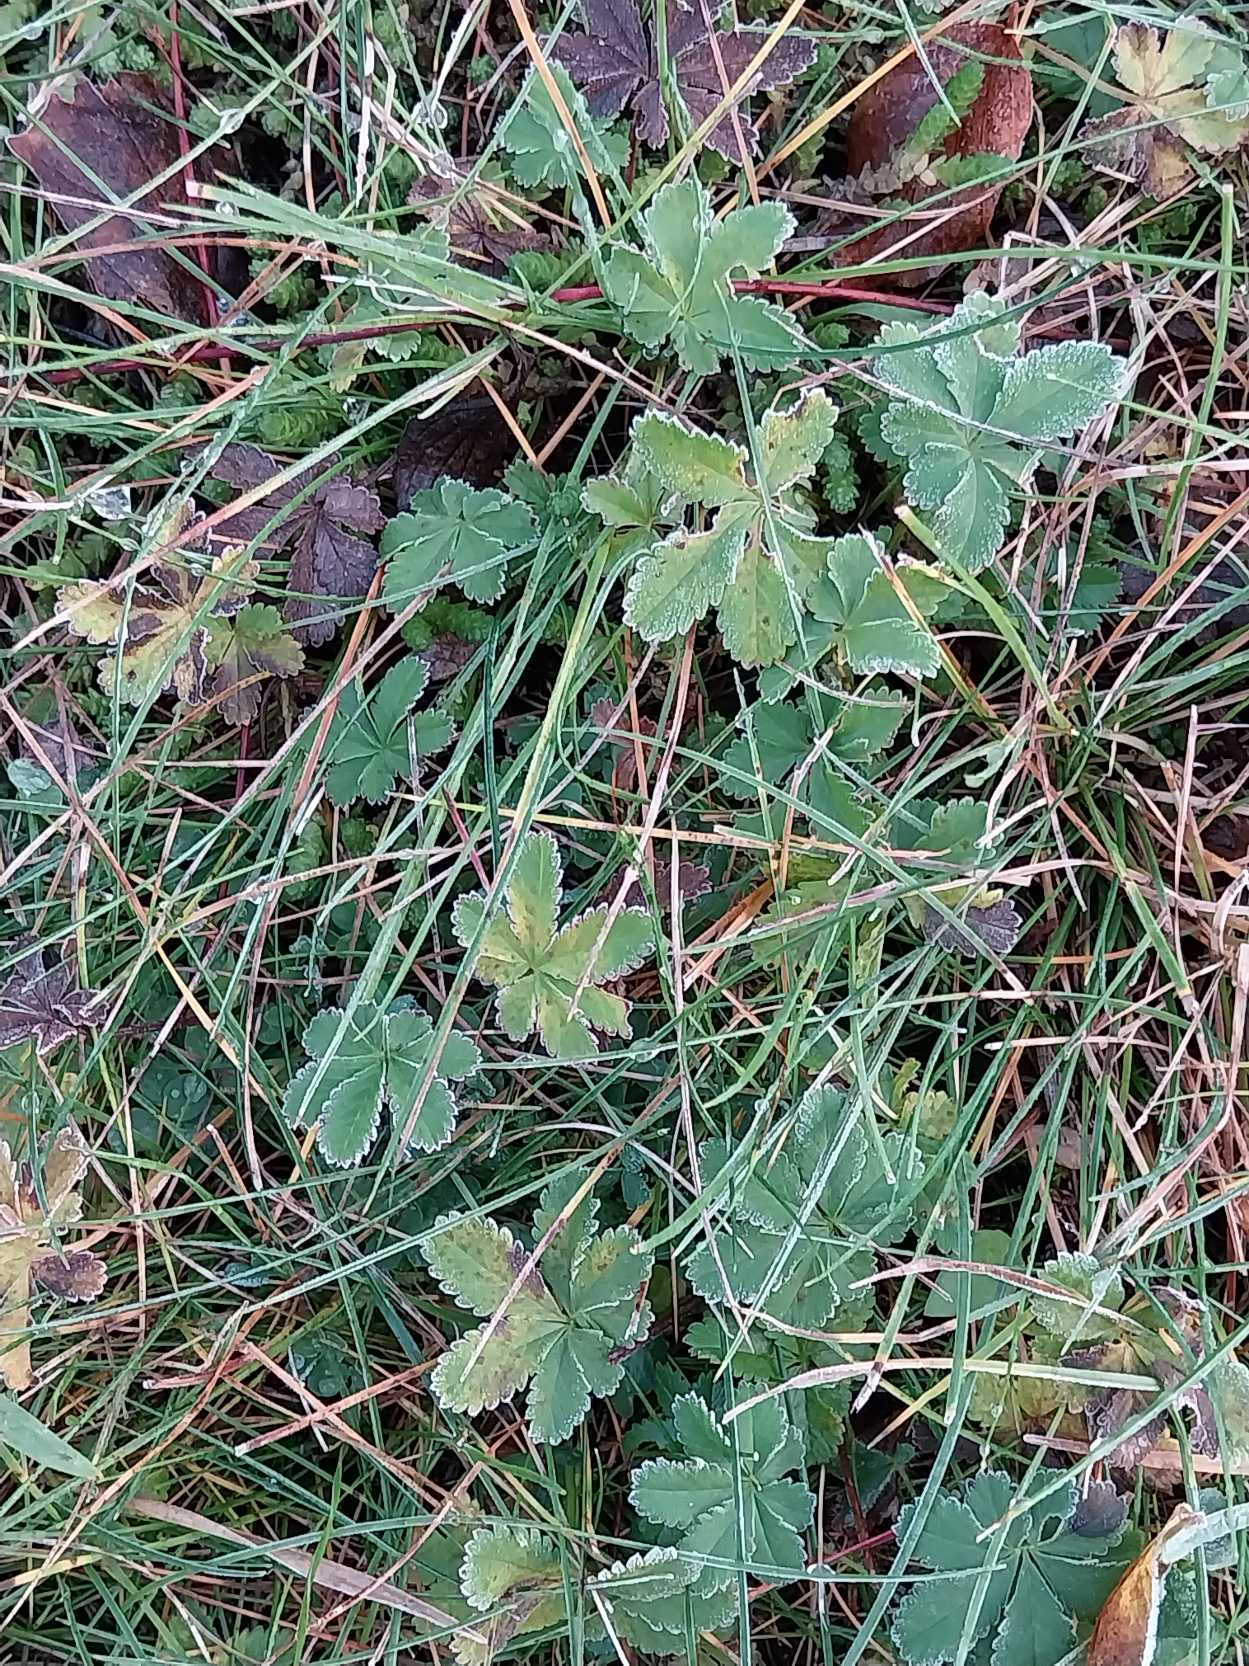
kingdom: Plantae
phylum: Tracheophyta
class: Magnoliopsida
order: Rosales
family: Rosaceae
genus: Potentilla
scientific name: Potentilla reptans
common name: Krybende potentil
